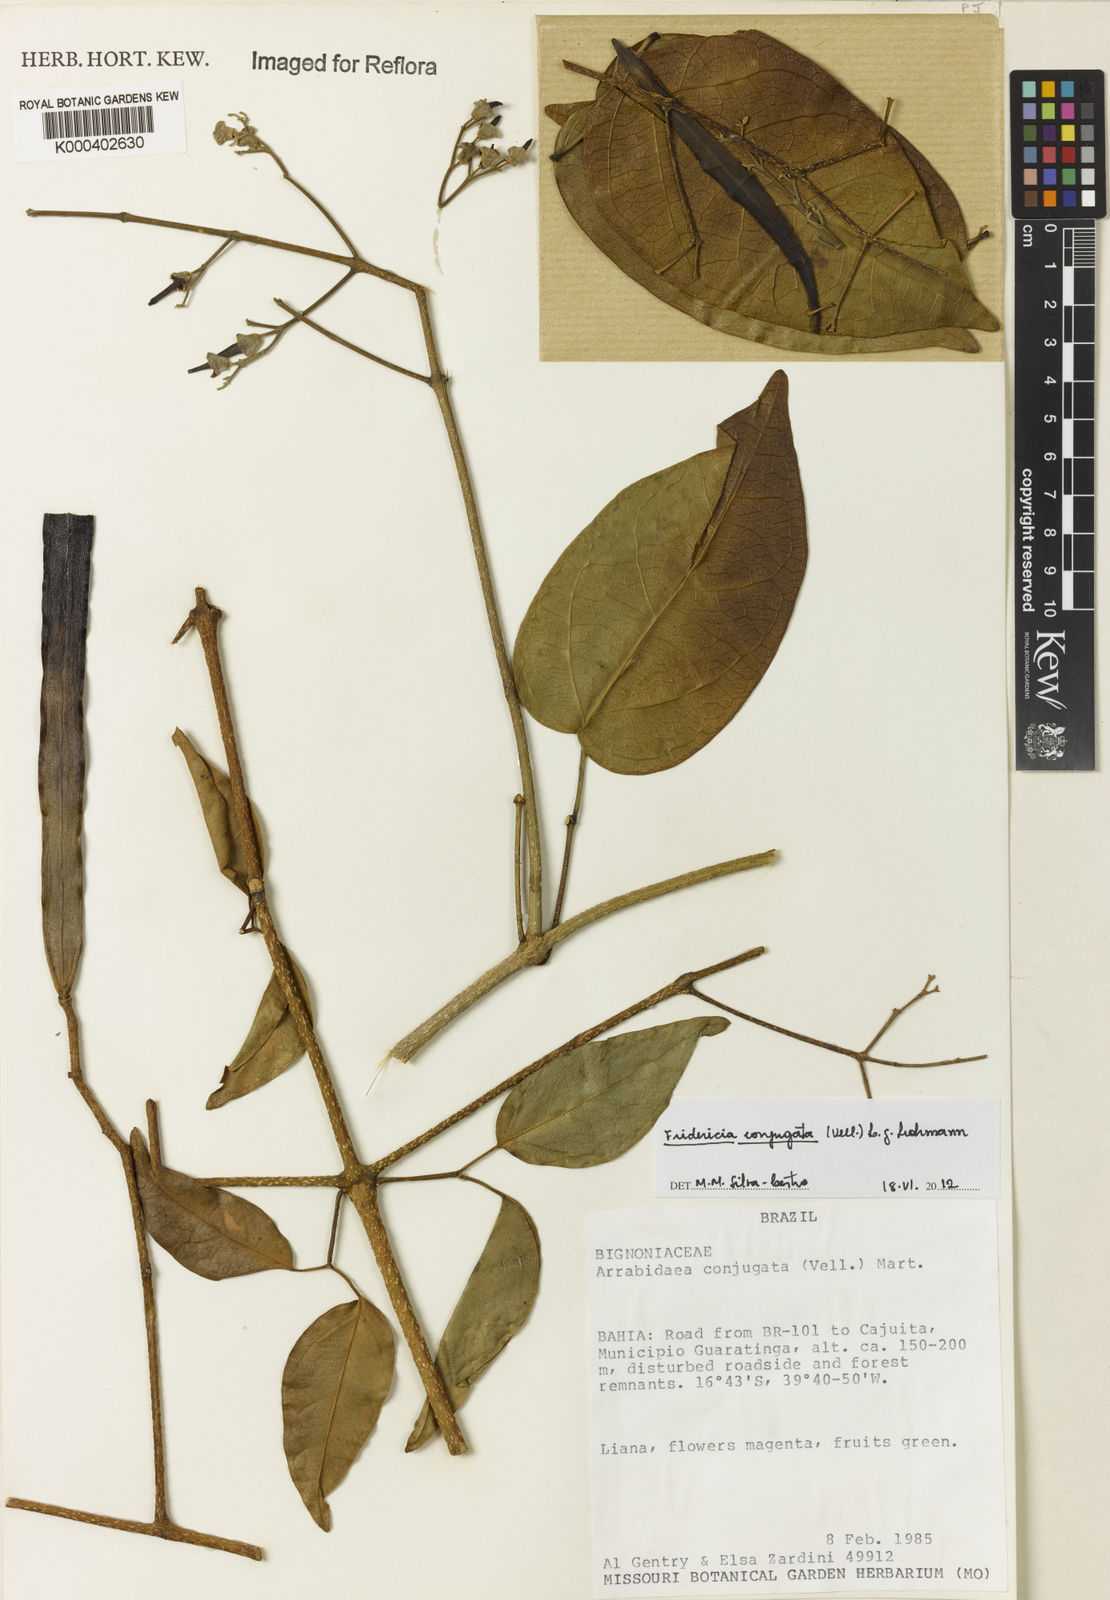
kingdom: Plantae
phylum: Tracheophyta
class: Magnoliopsida
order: Lamiales
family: Bignoniaceae
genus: Fridericia
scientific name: Fridericia conjugata
